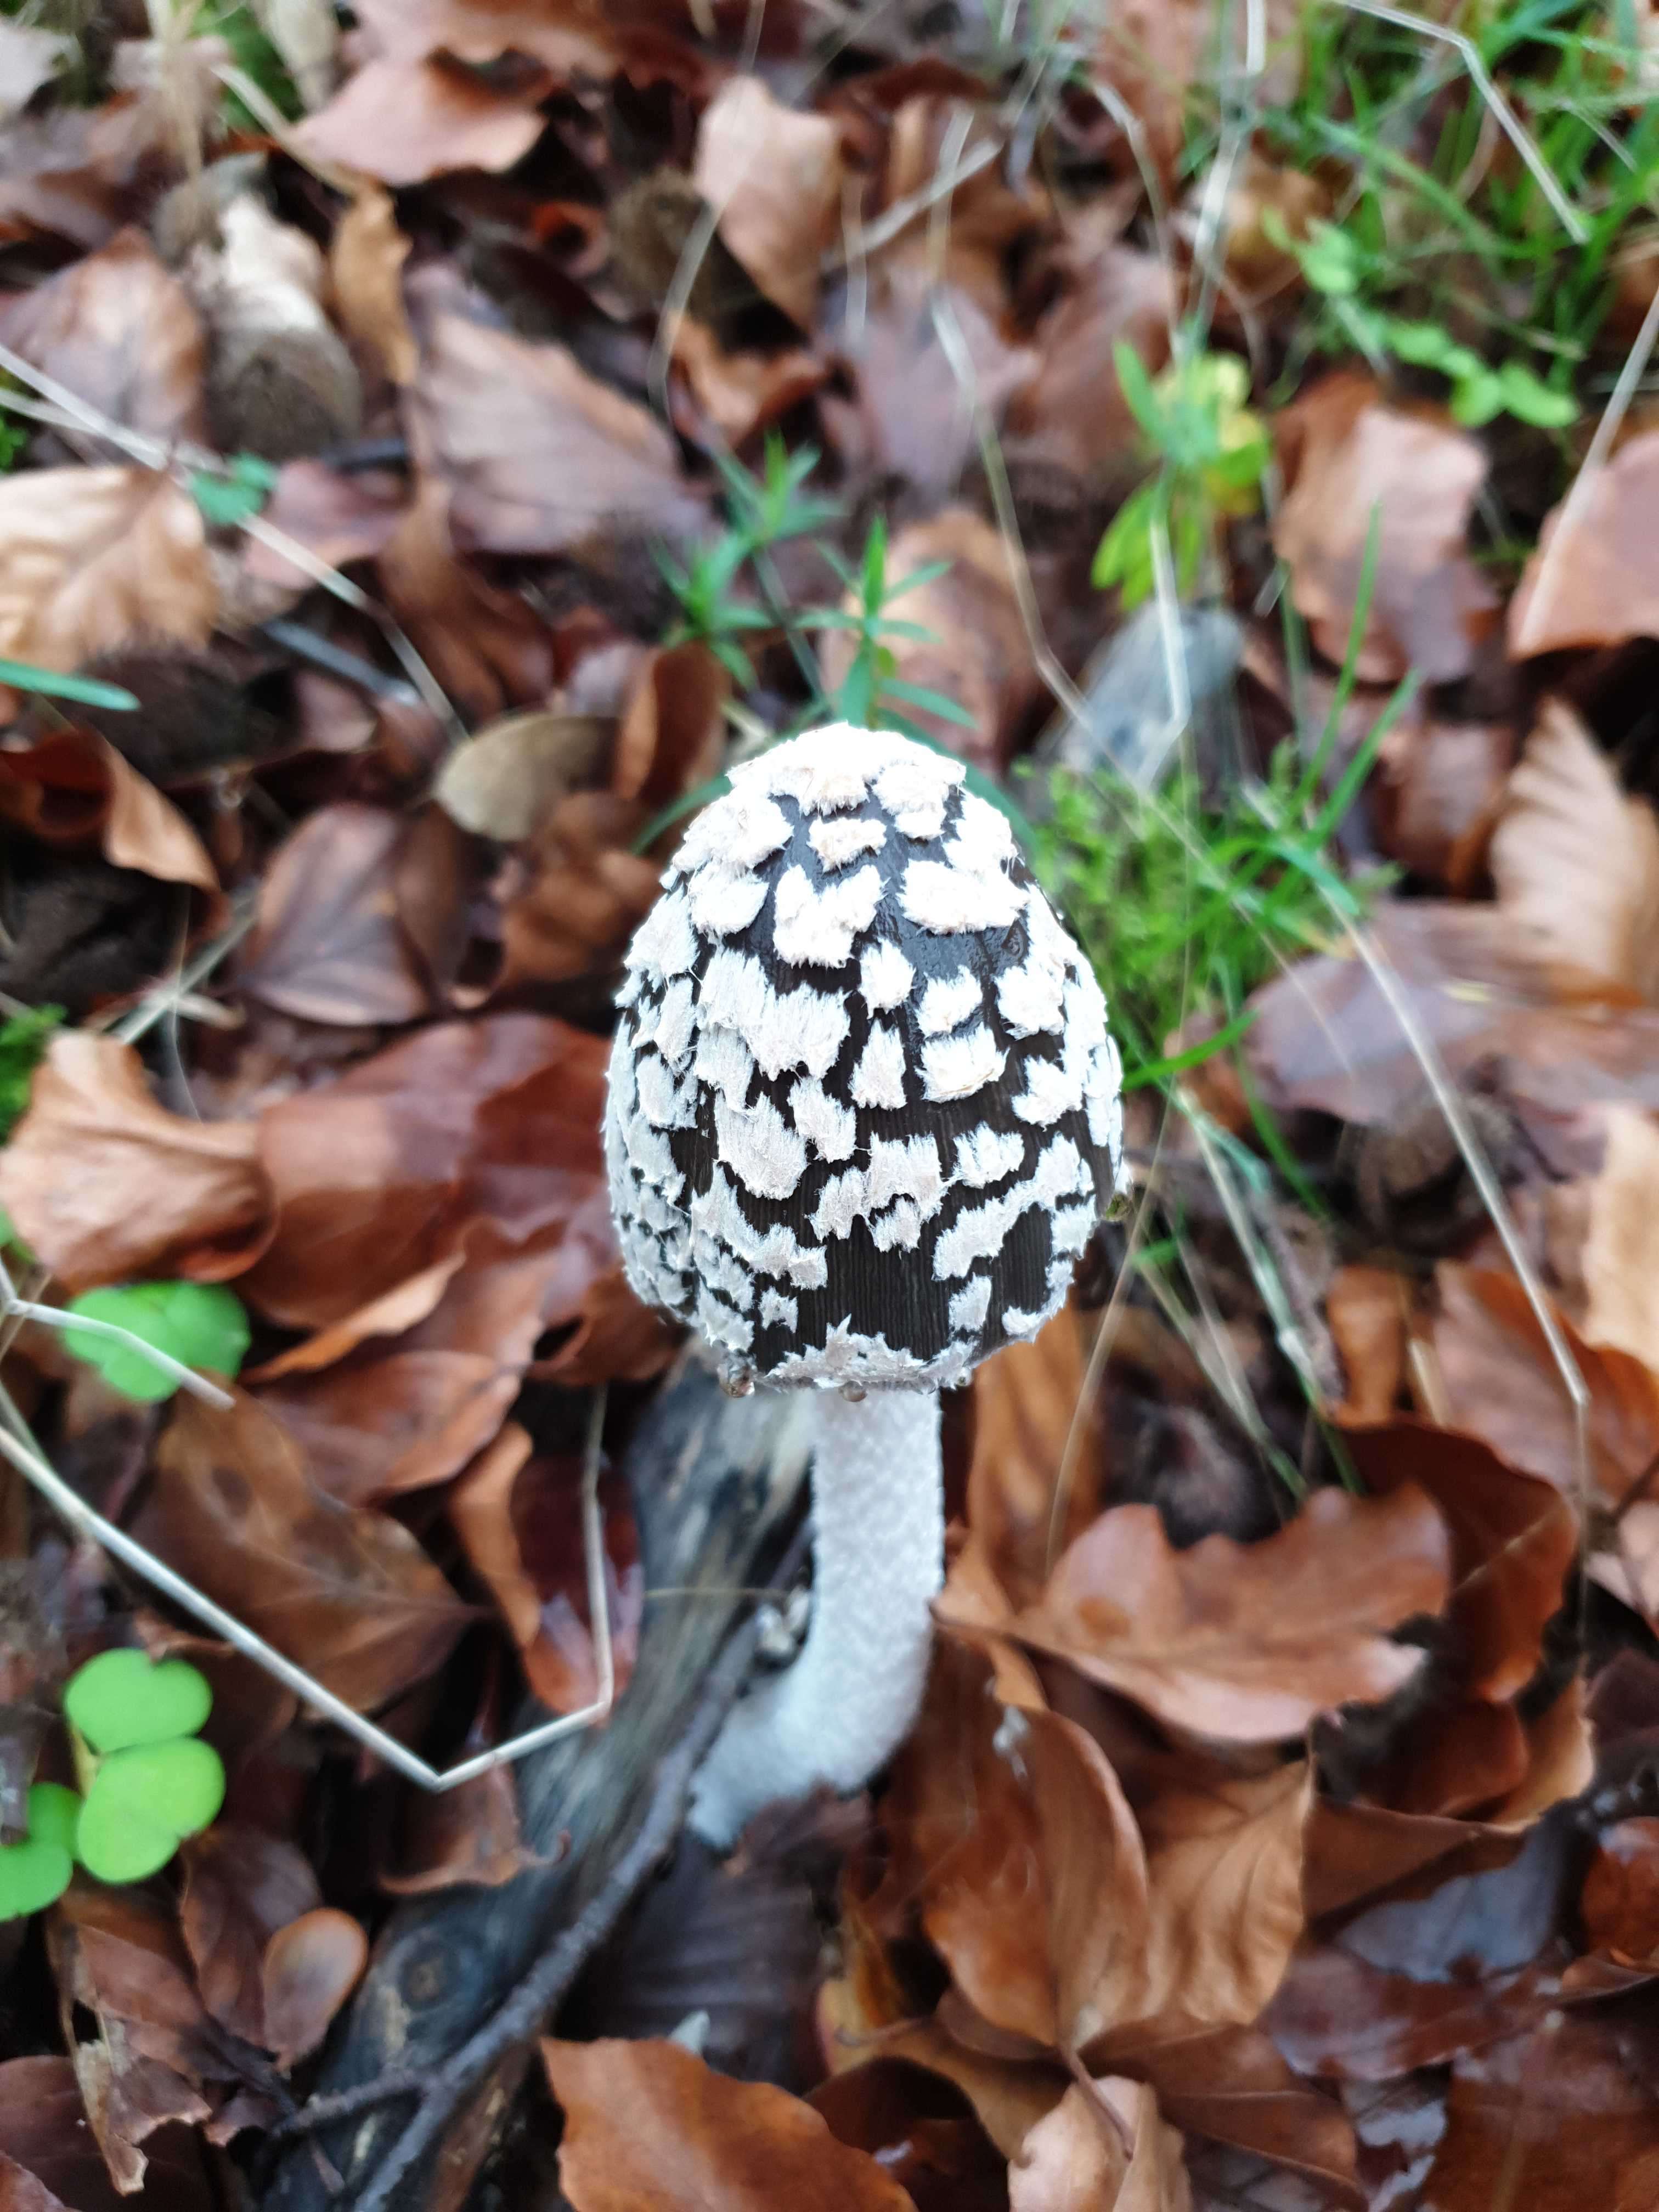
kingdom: Fungi
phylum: Basidiomycota
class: Agaricomycetes
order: Agaricales
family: Psathyrellaceae
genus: Coprinopsis
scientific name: Coprinopsis picacea
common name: skade-blækhat
